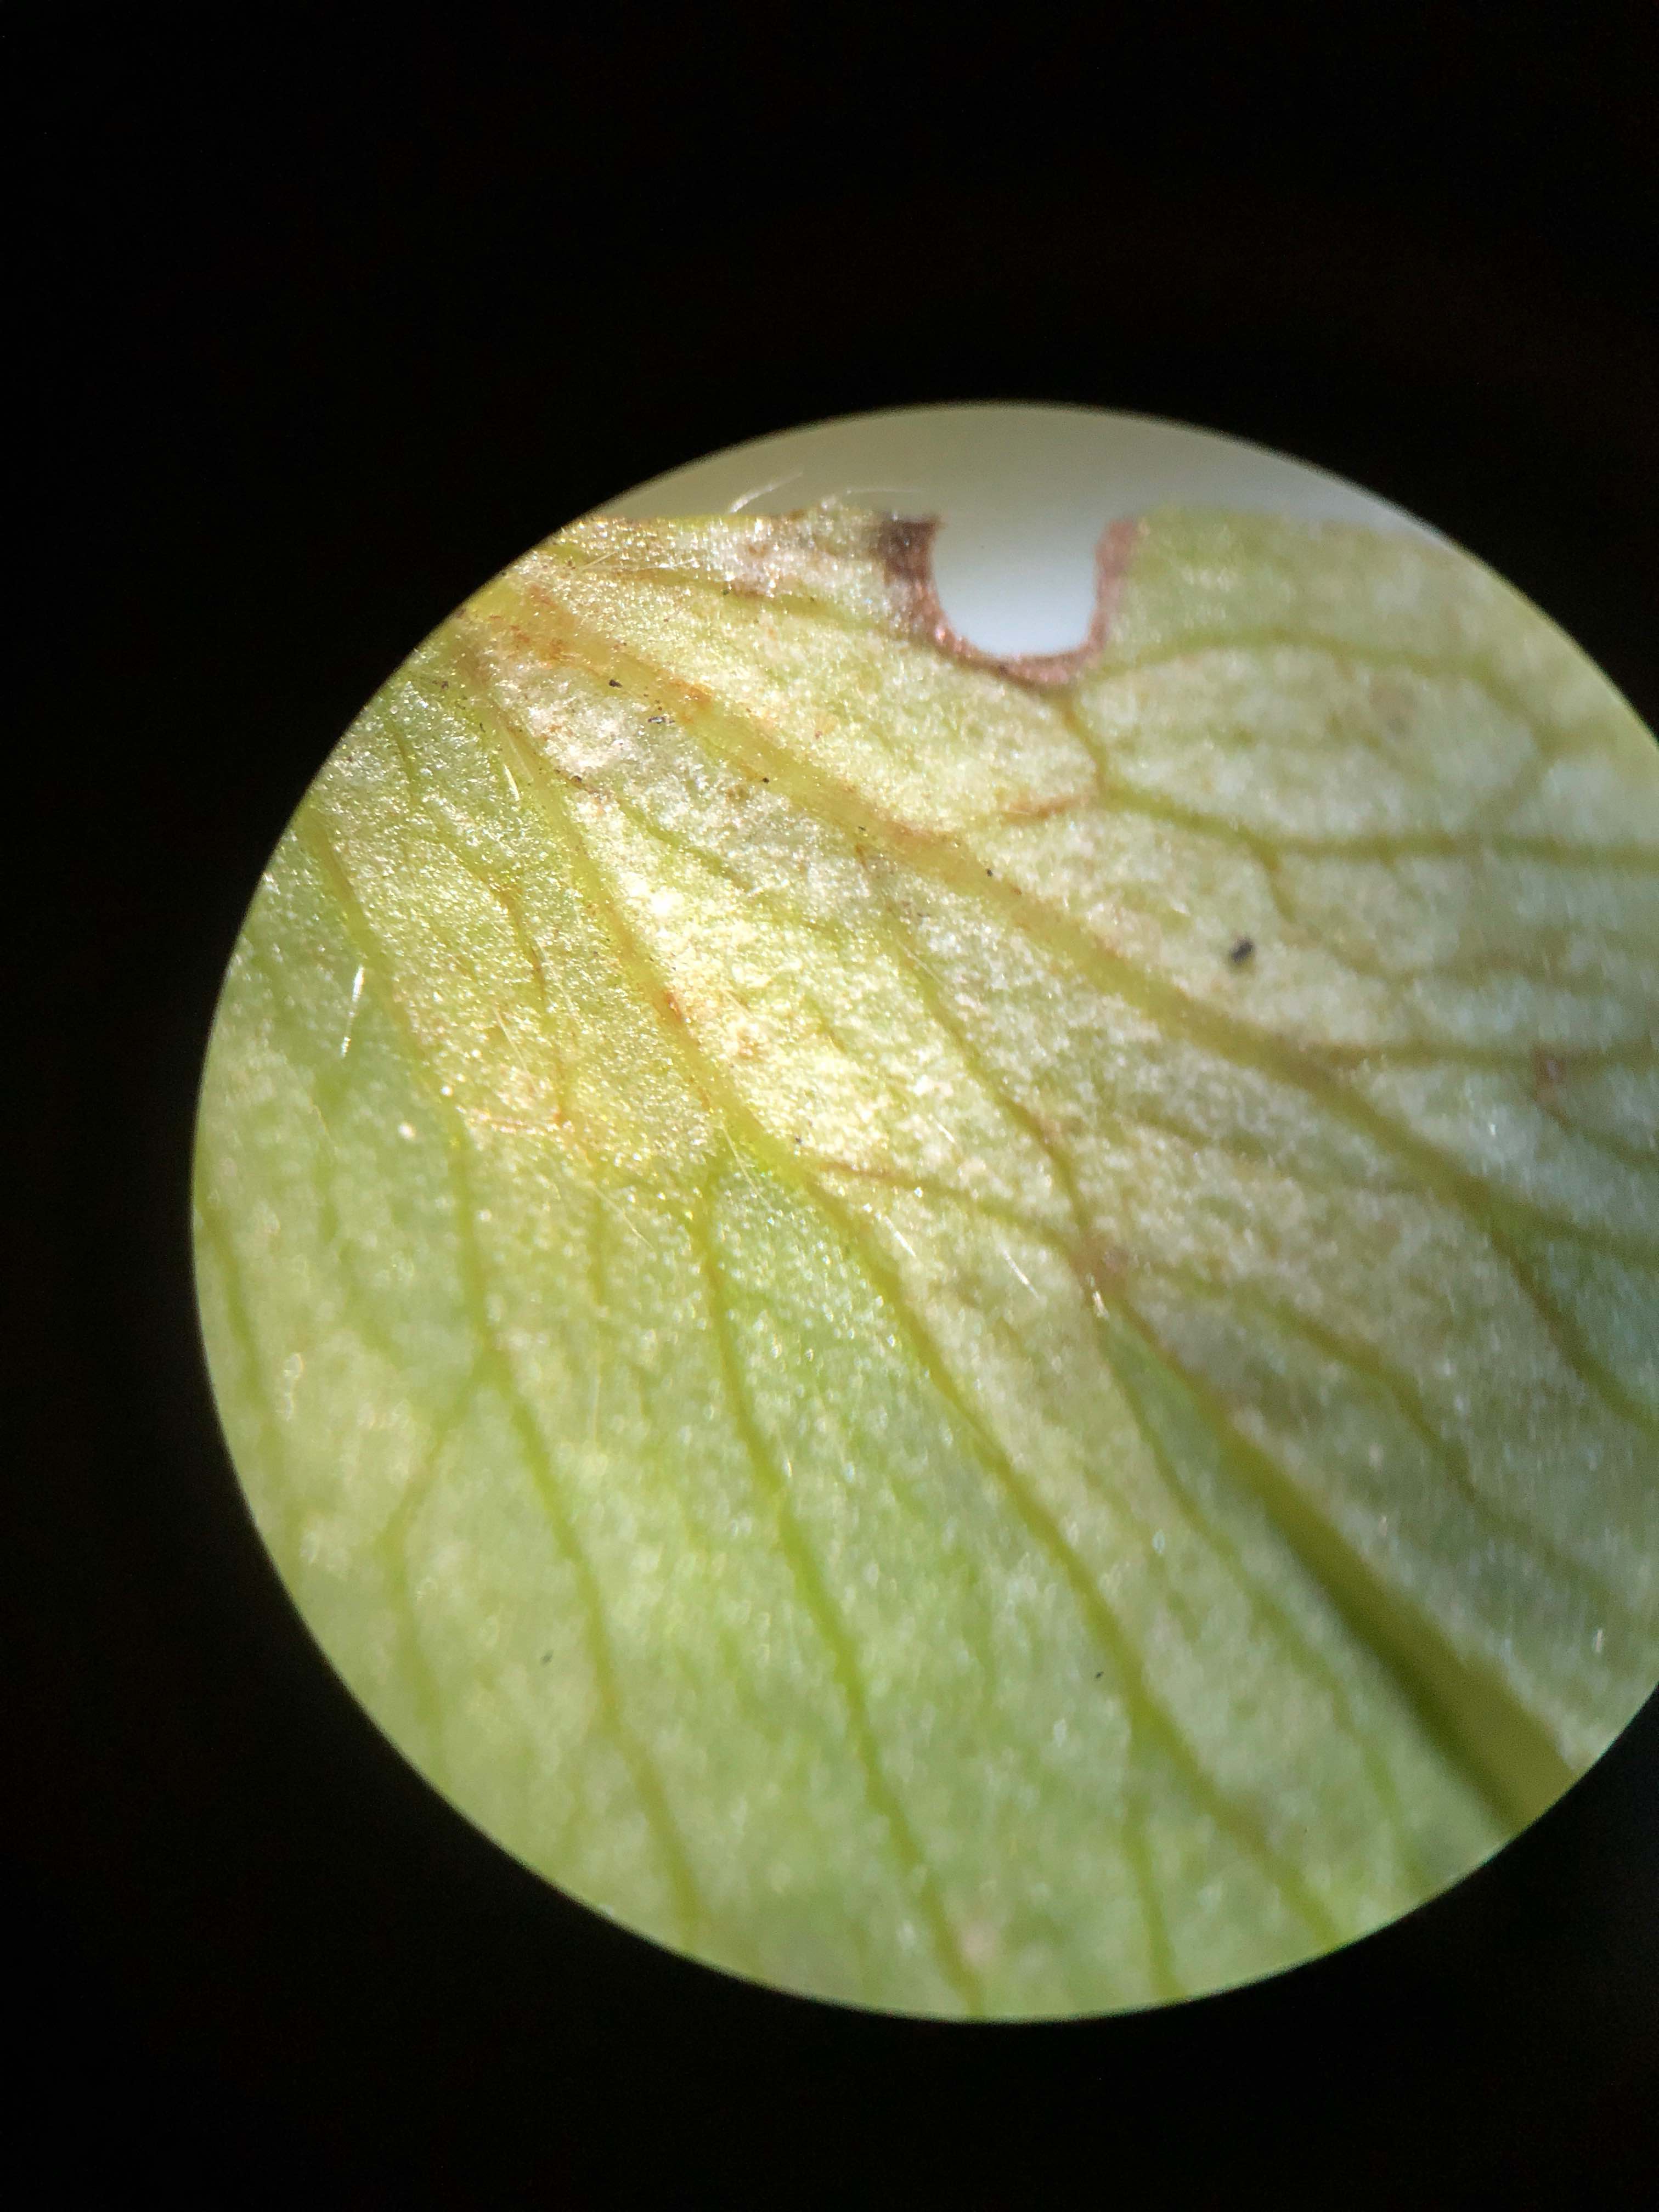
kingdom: Chromista
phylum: Oomycota
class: Peronosporea
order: Peronosporales
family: Peronosporaceae
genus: Plasmoverna
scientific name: Plasmoverna pygmaea
